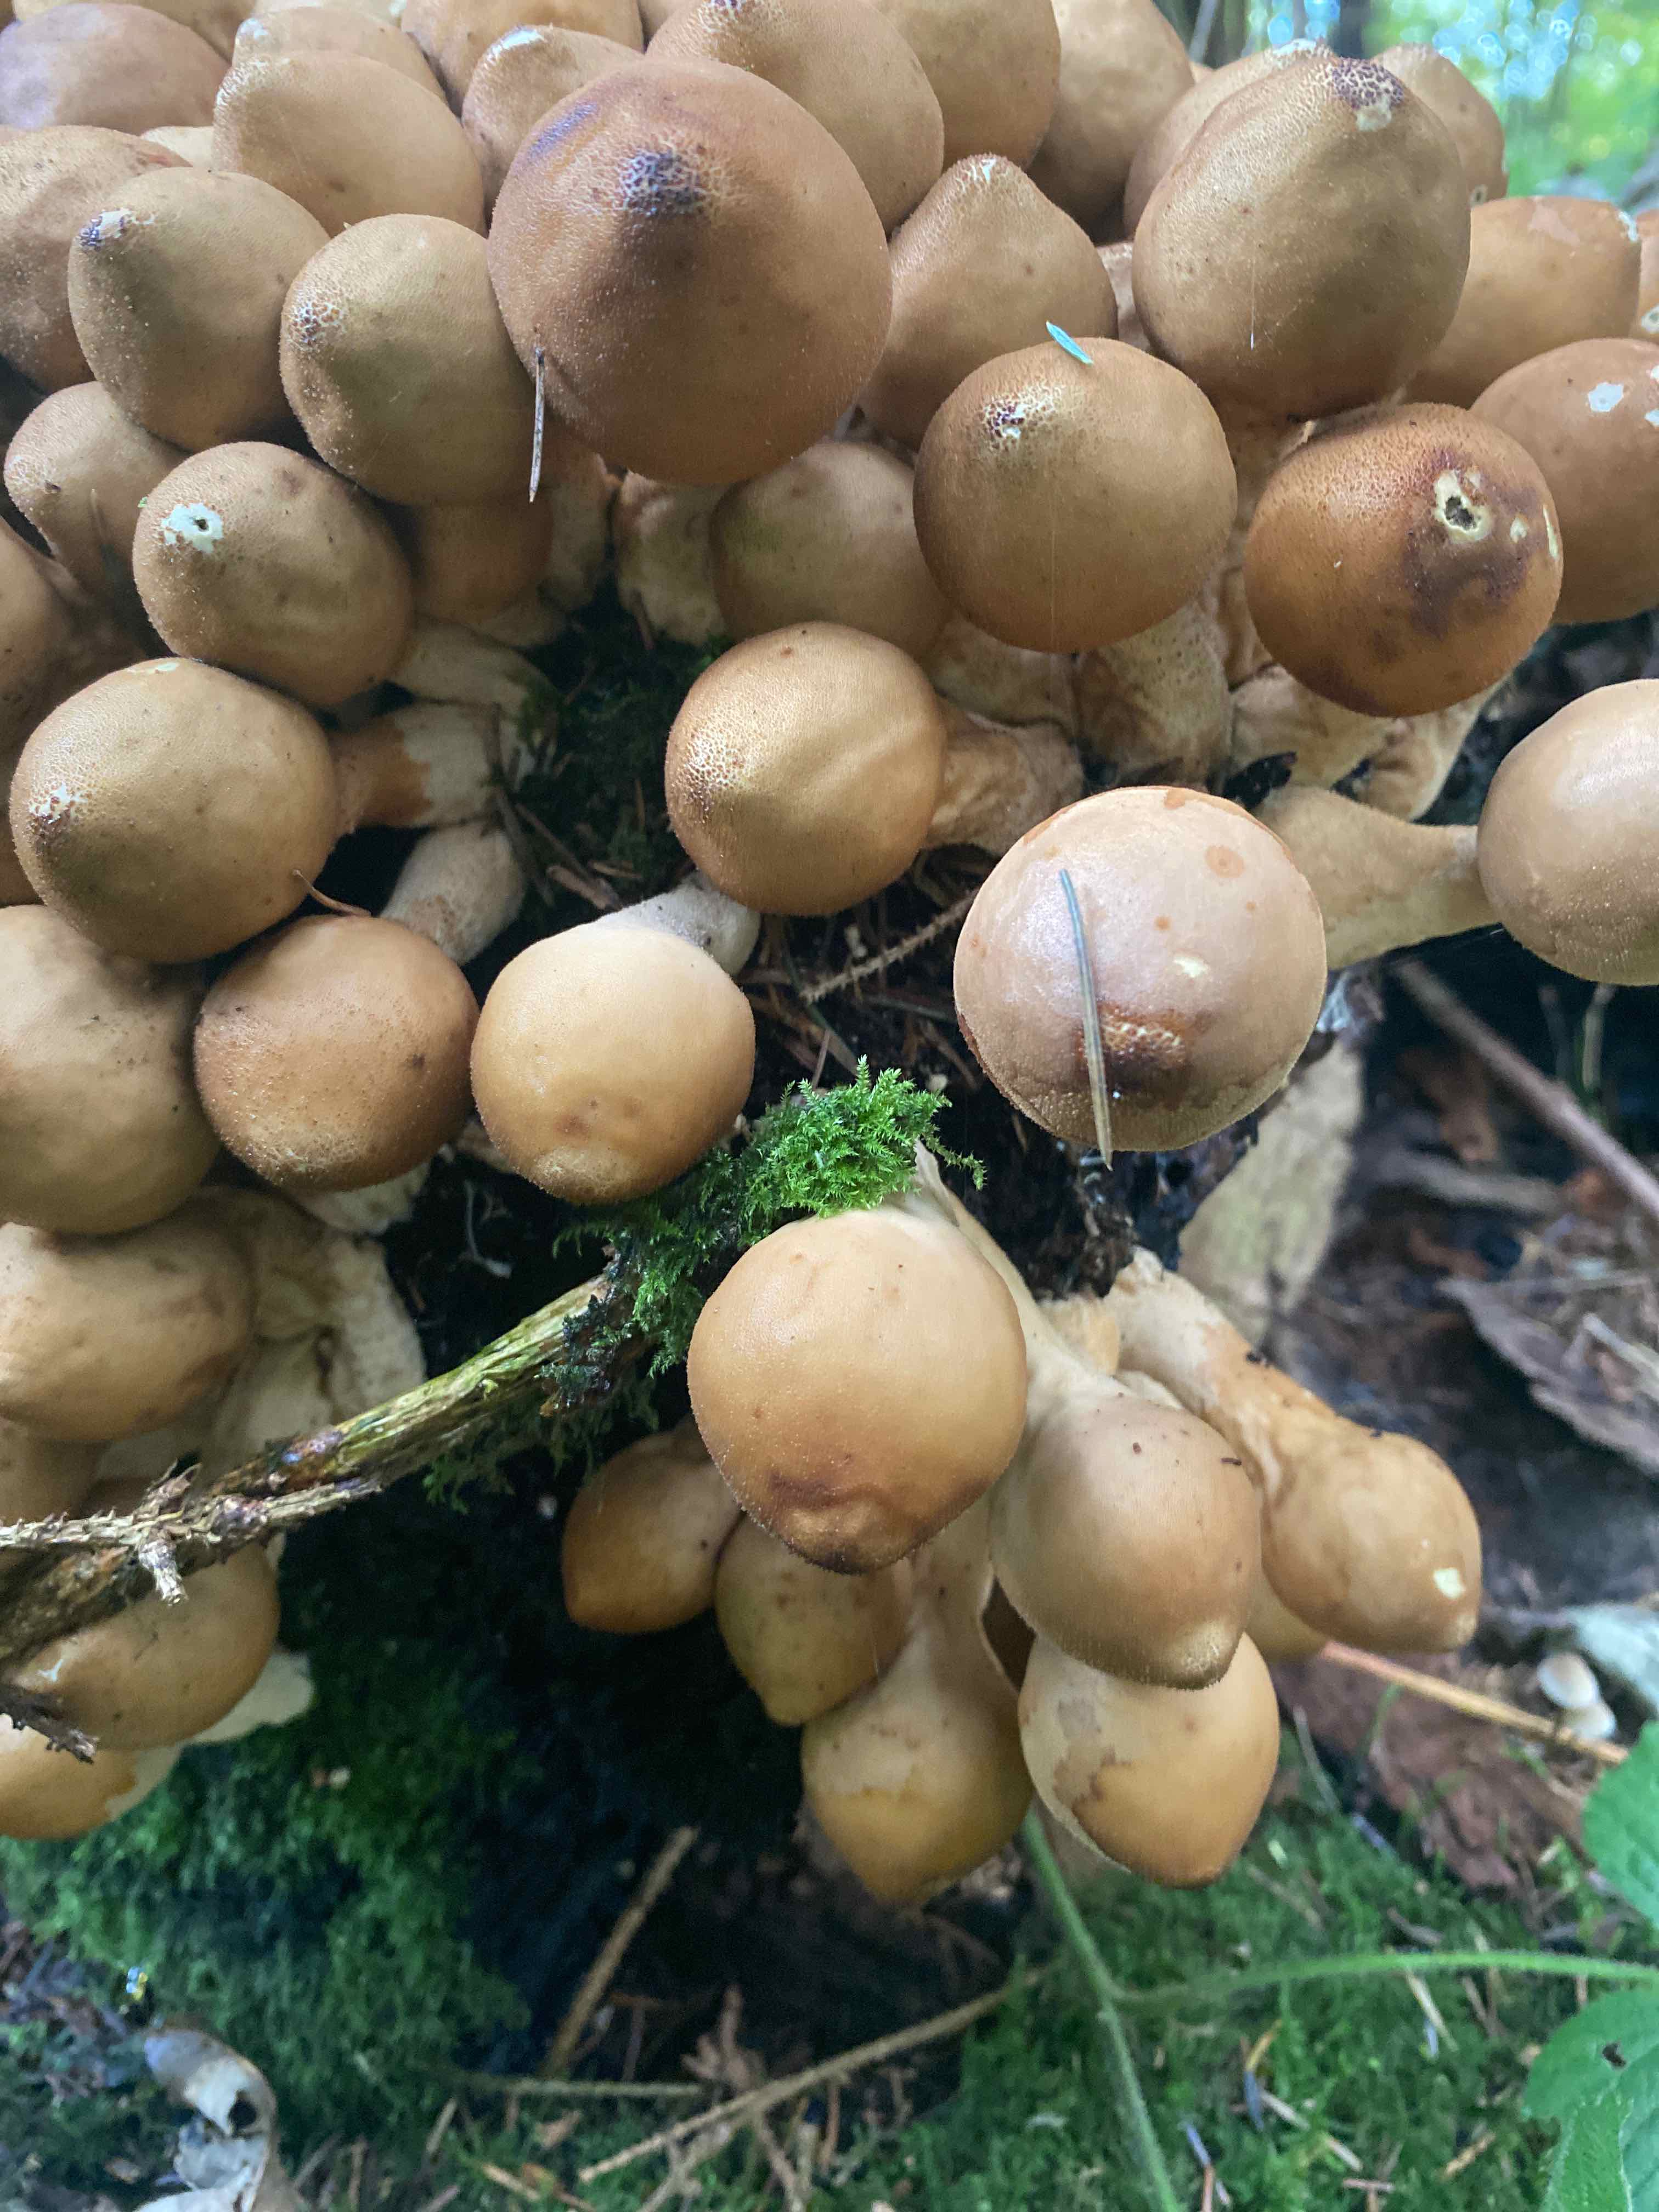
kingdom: Fungi
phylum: Basidiomycota
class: Agaricomycetes
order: Agaricales
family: Lycoperdaceae
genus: Apioperdon
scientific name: Apioperdon pyriforme
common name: pære-støvbold
